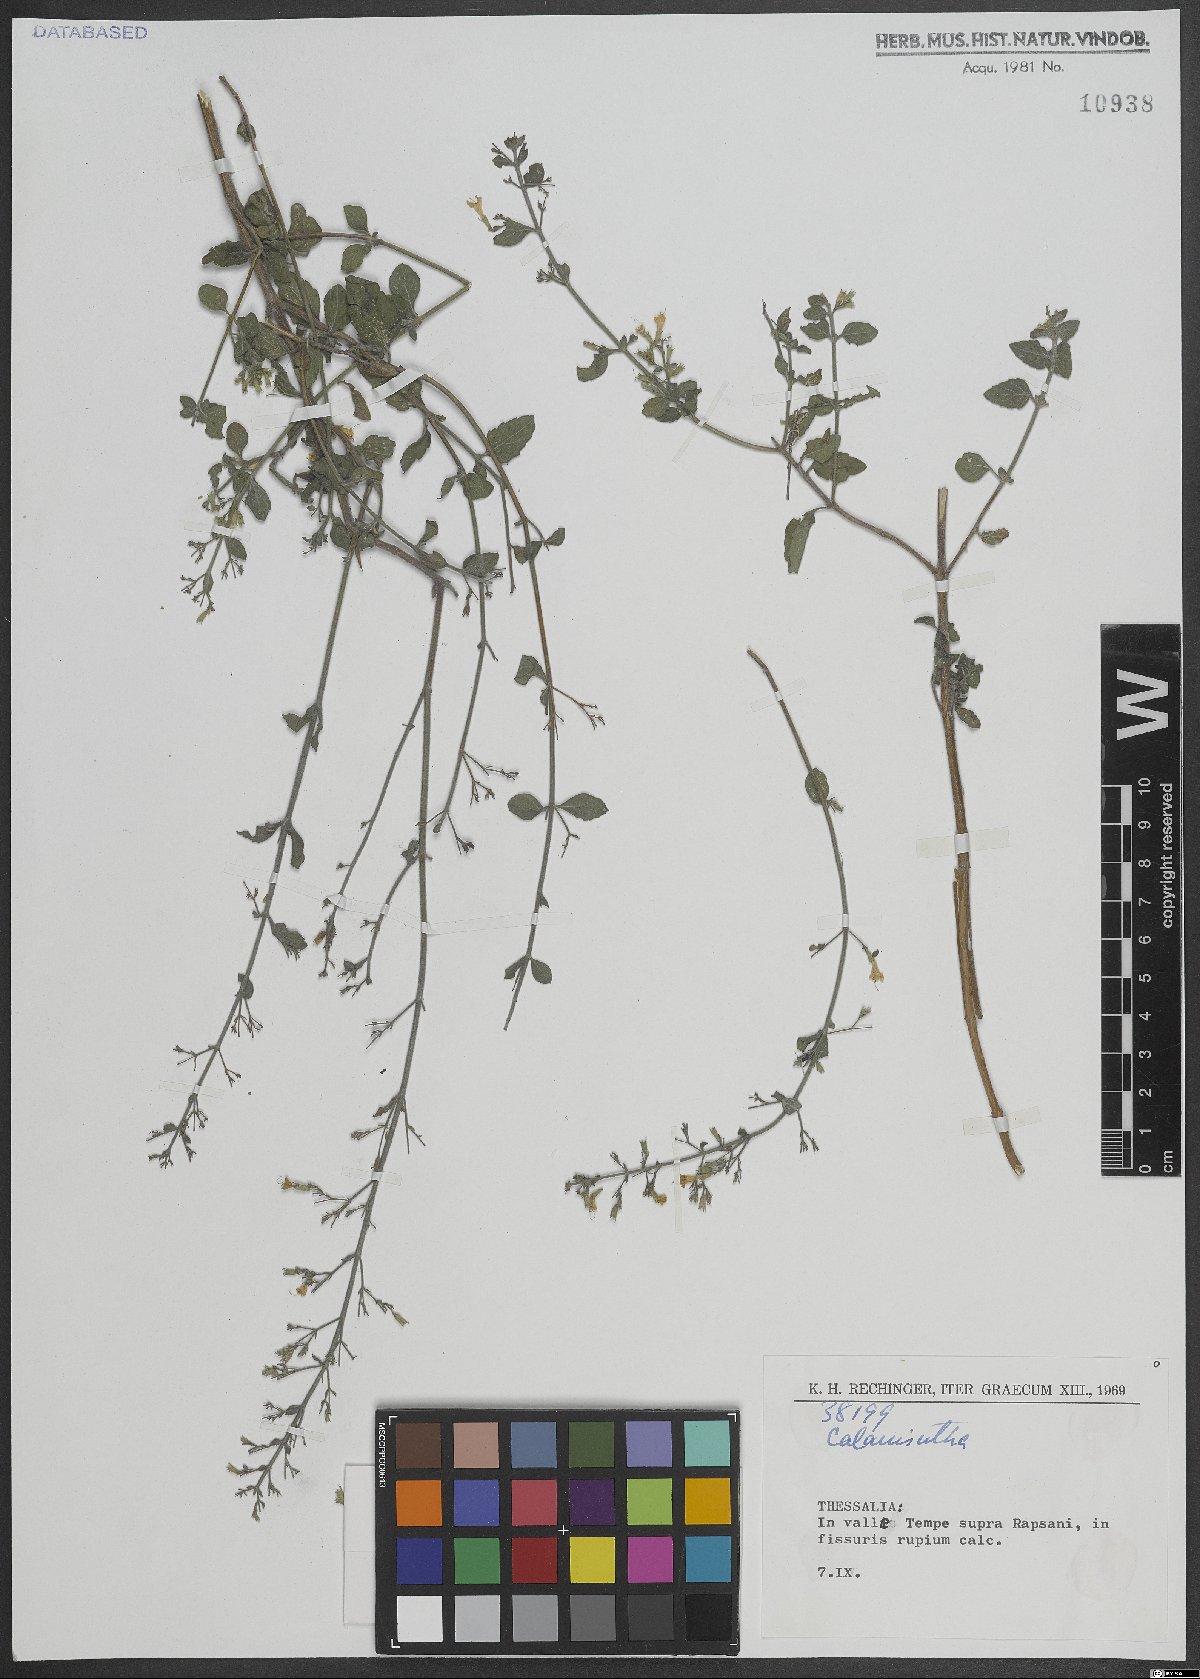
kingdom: Plantae
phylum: Tracheophyta
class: Magnoliopsida
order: Lamiales
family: Lamiaceae
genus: Calamintha
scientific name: Calamintha
